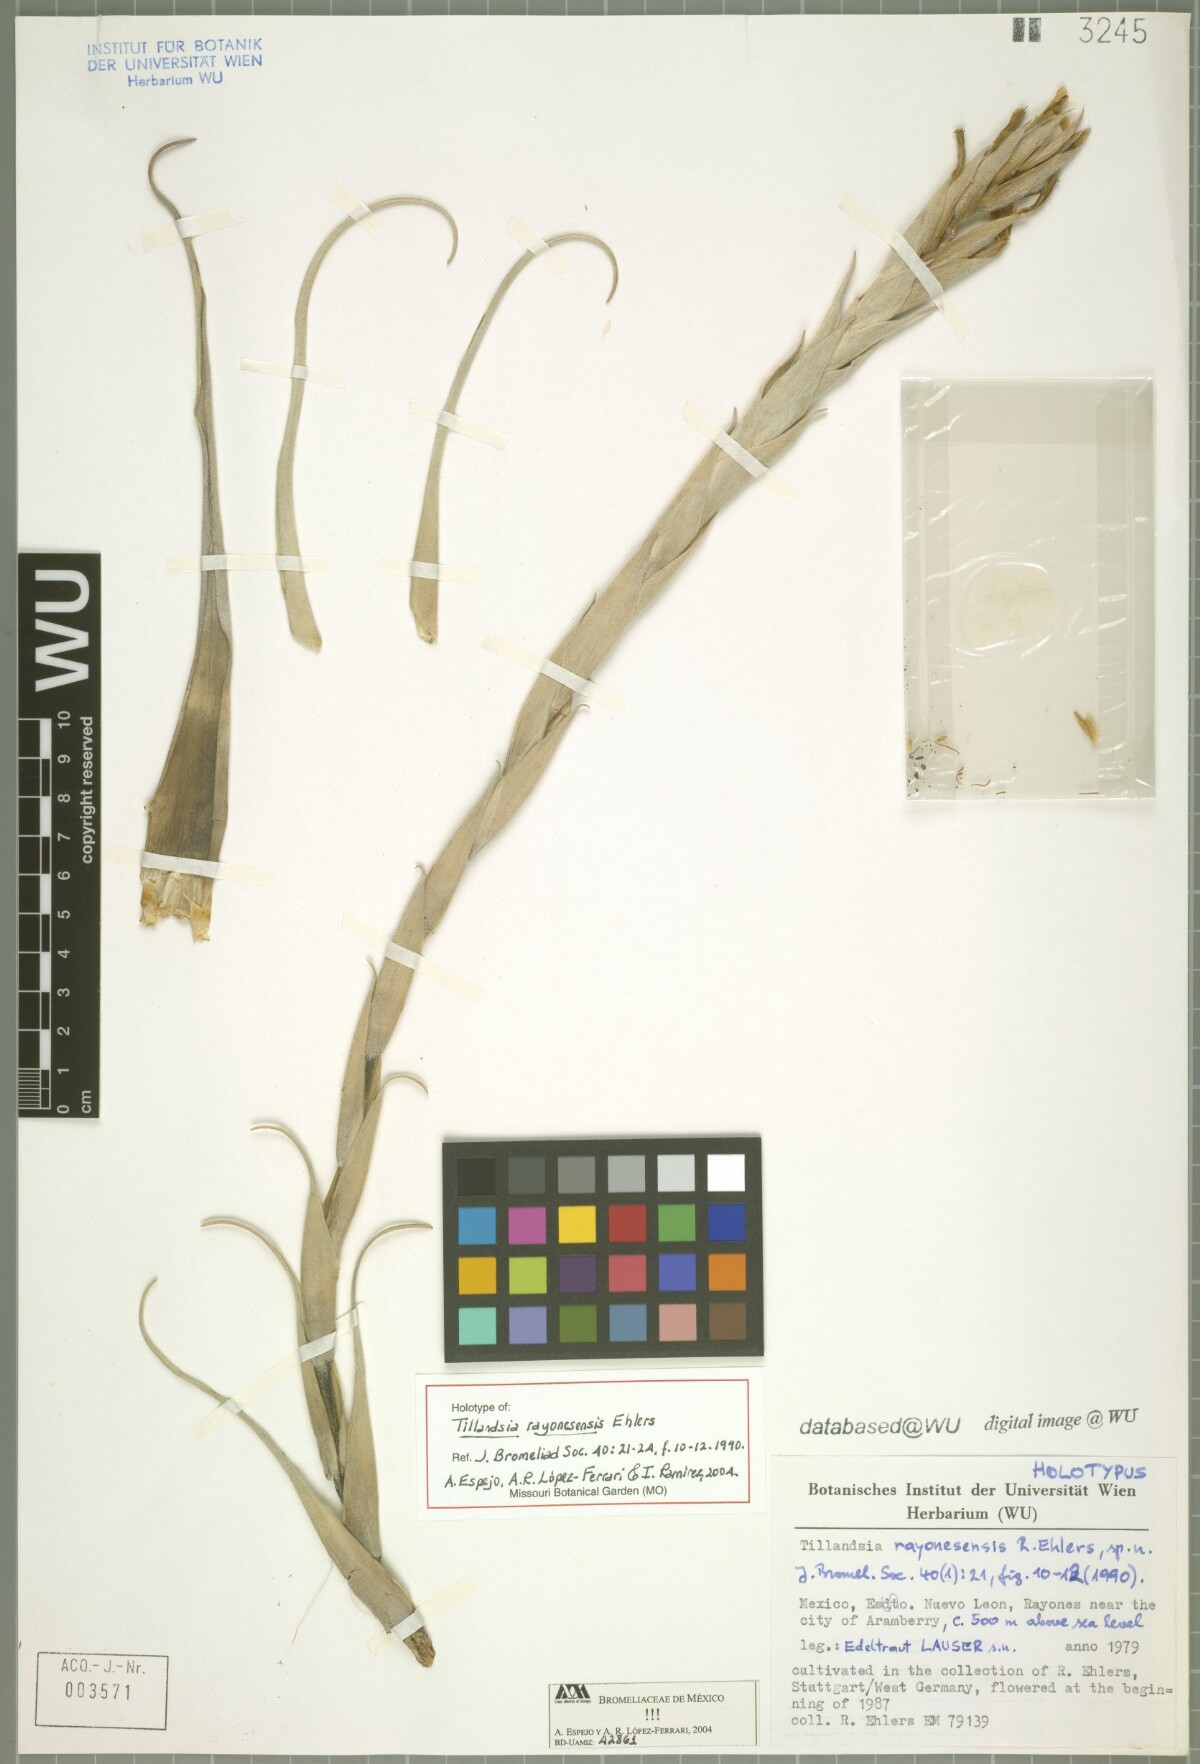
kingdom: Plantae
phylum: Tracheophyta
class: Liliopsida
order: Poales
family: Bromeliaceae
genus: Tillandsia
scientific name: Tillandsia roseoscapa
